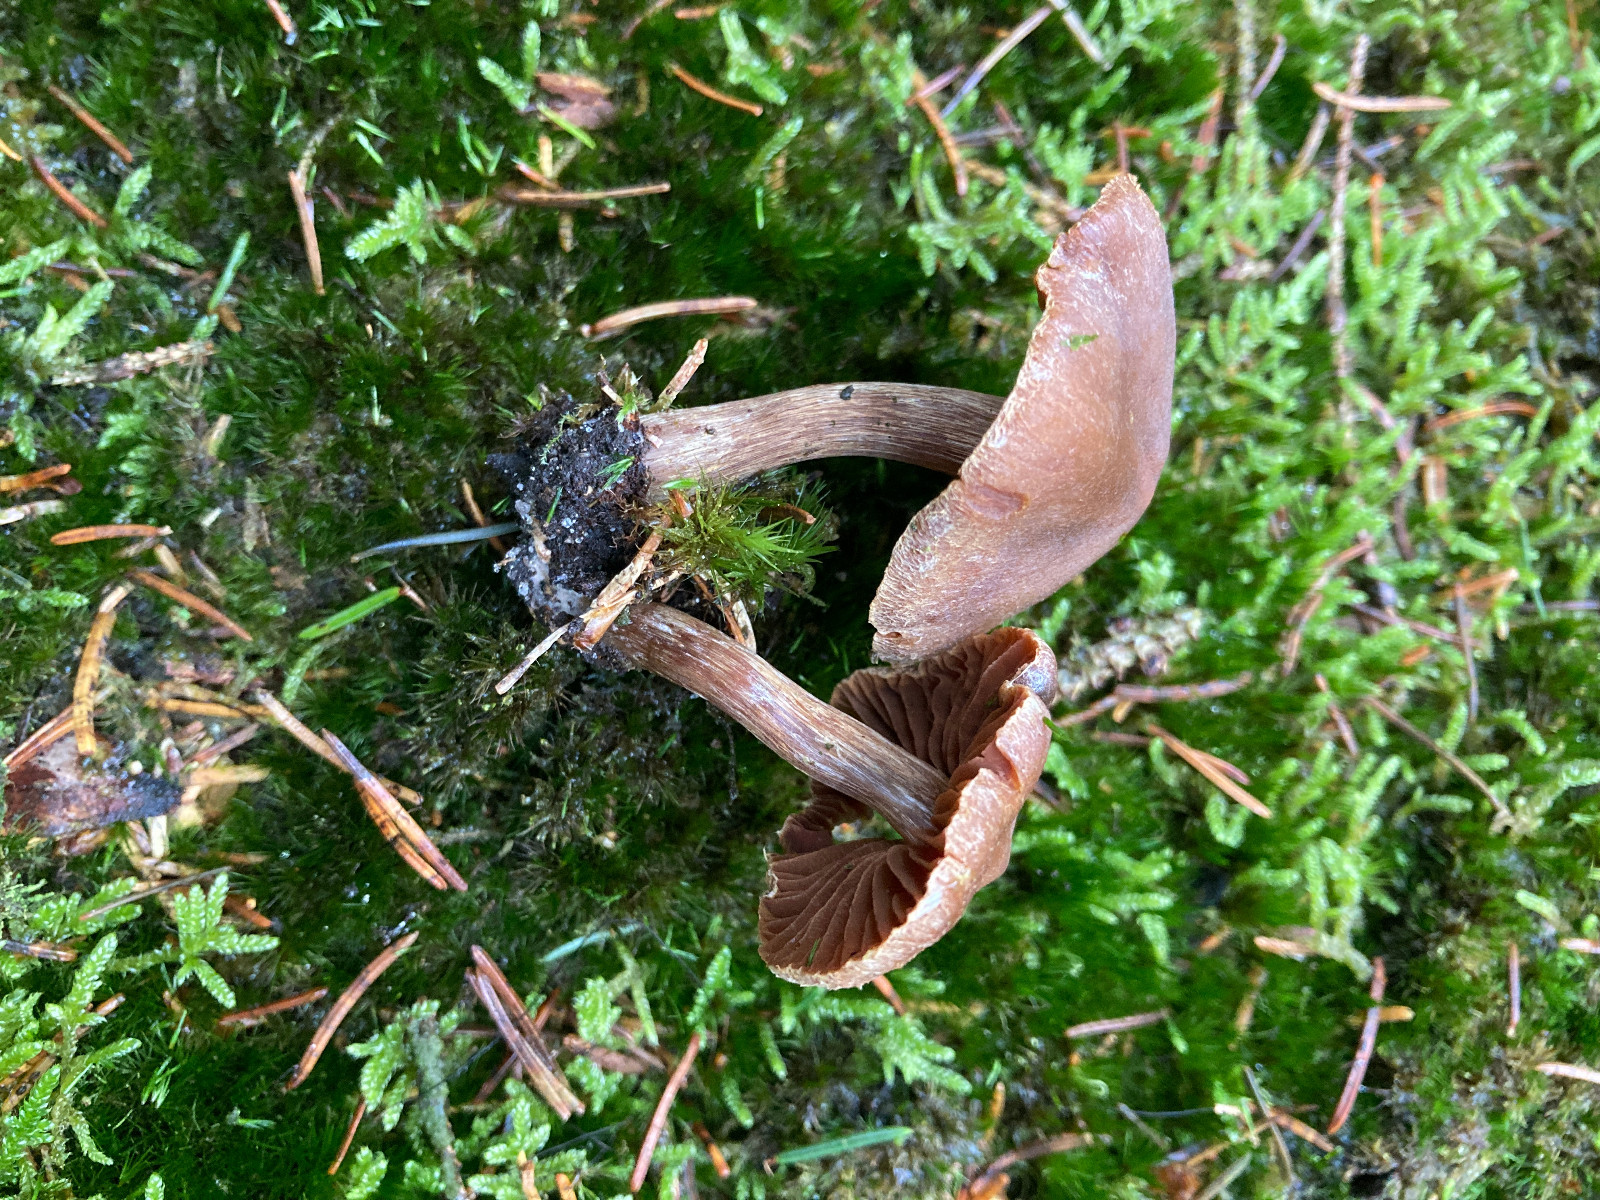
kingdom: Fungi
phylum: Basidiomycota
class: Agaricomycetes
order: Agaricales
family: Cortinariaceae
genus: Cortinarius
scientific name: Cortinarius
